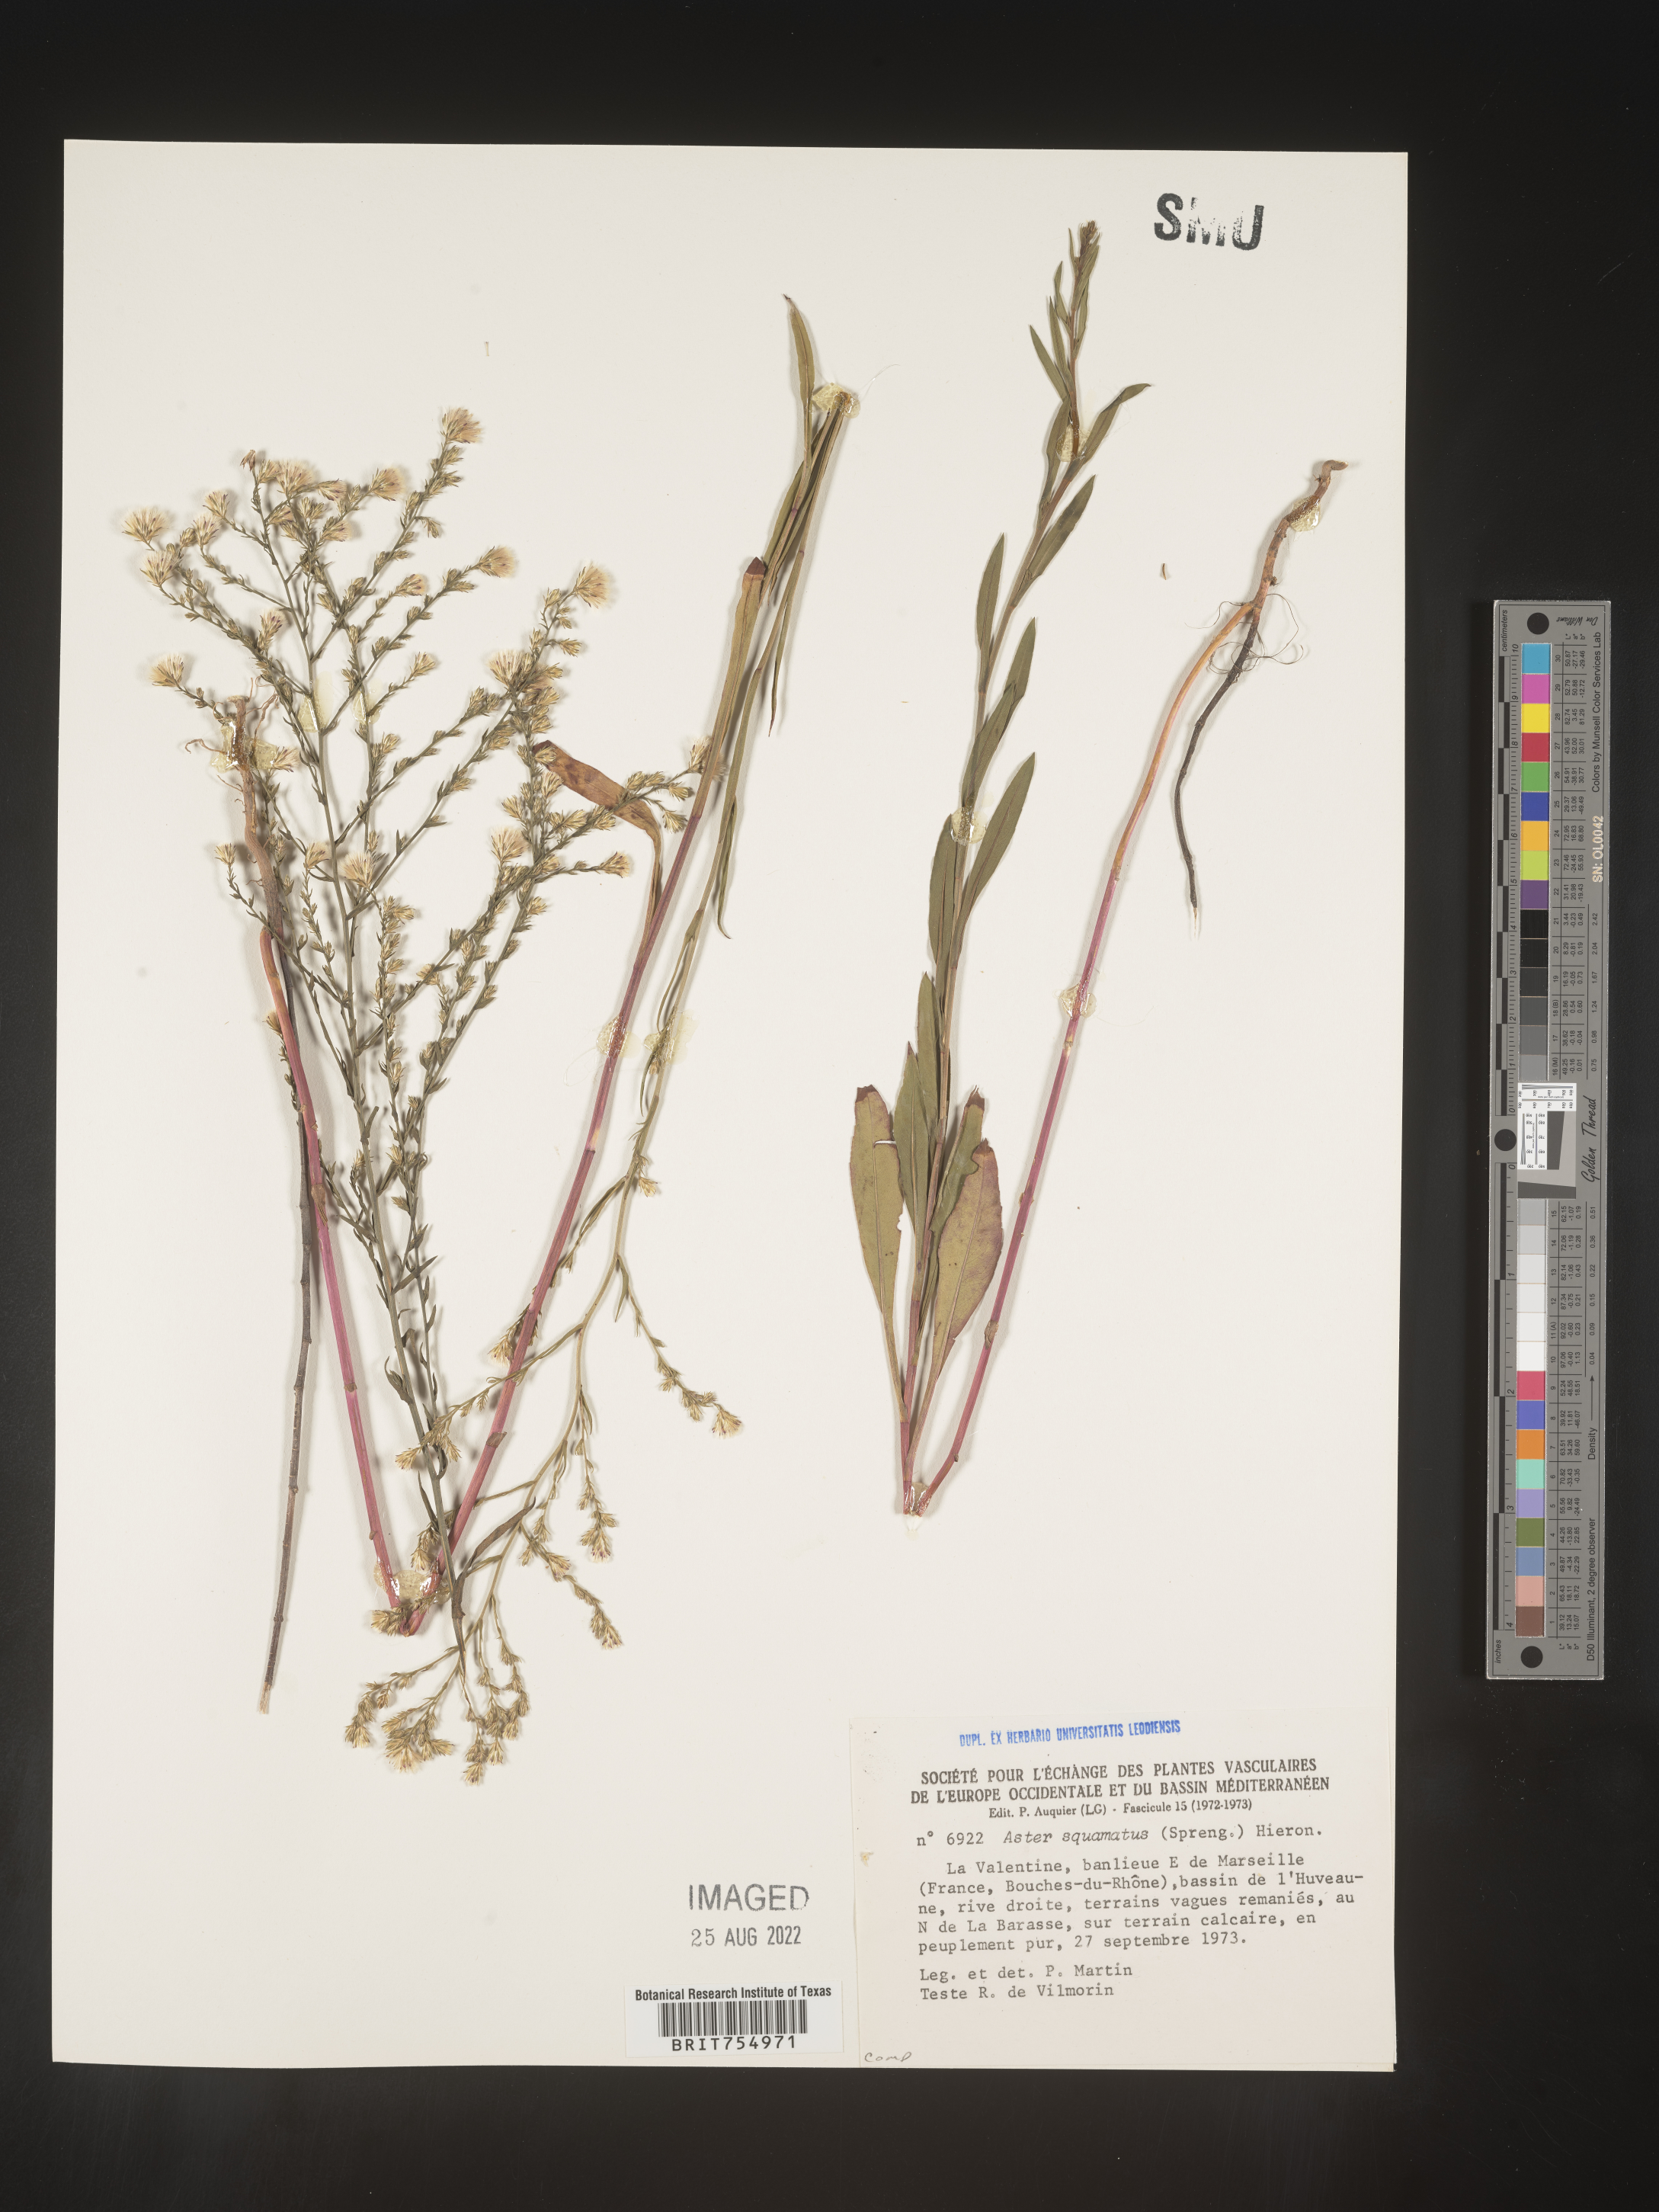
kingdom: Plantae
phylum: Tracheophyta
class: Magnoliopsida
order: Asterales
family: Asteraceae
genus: Symphyotrichum
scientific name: Symphyotrichum
